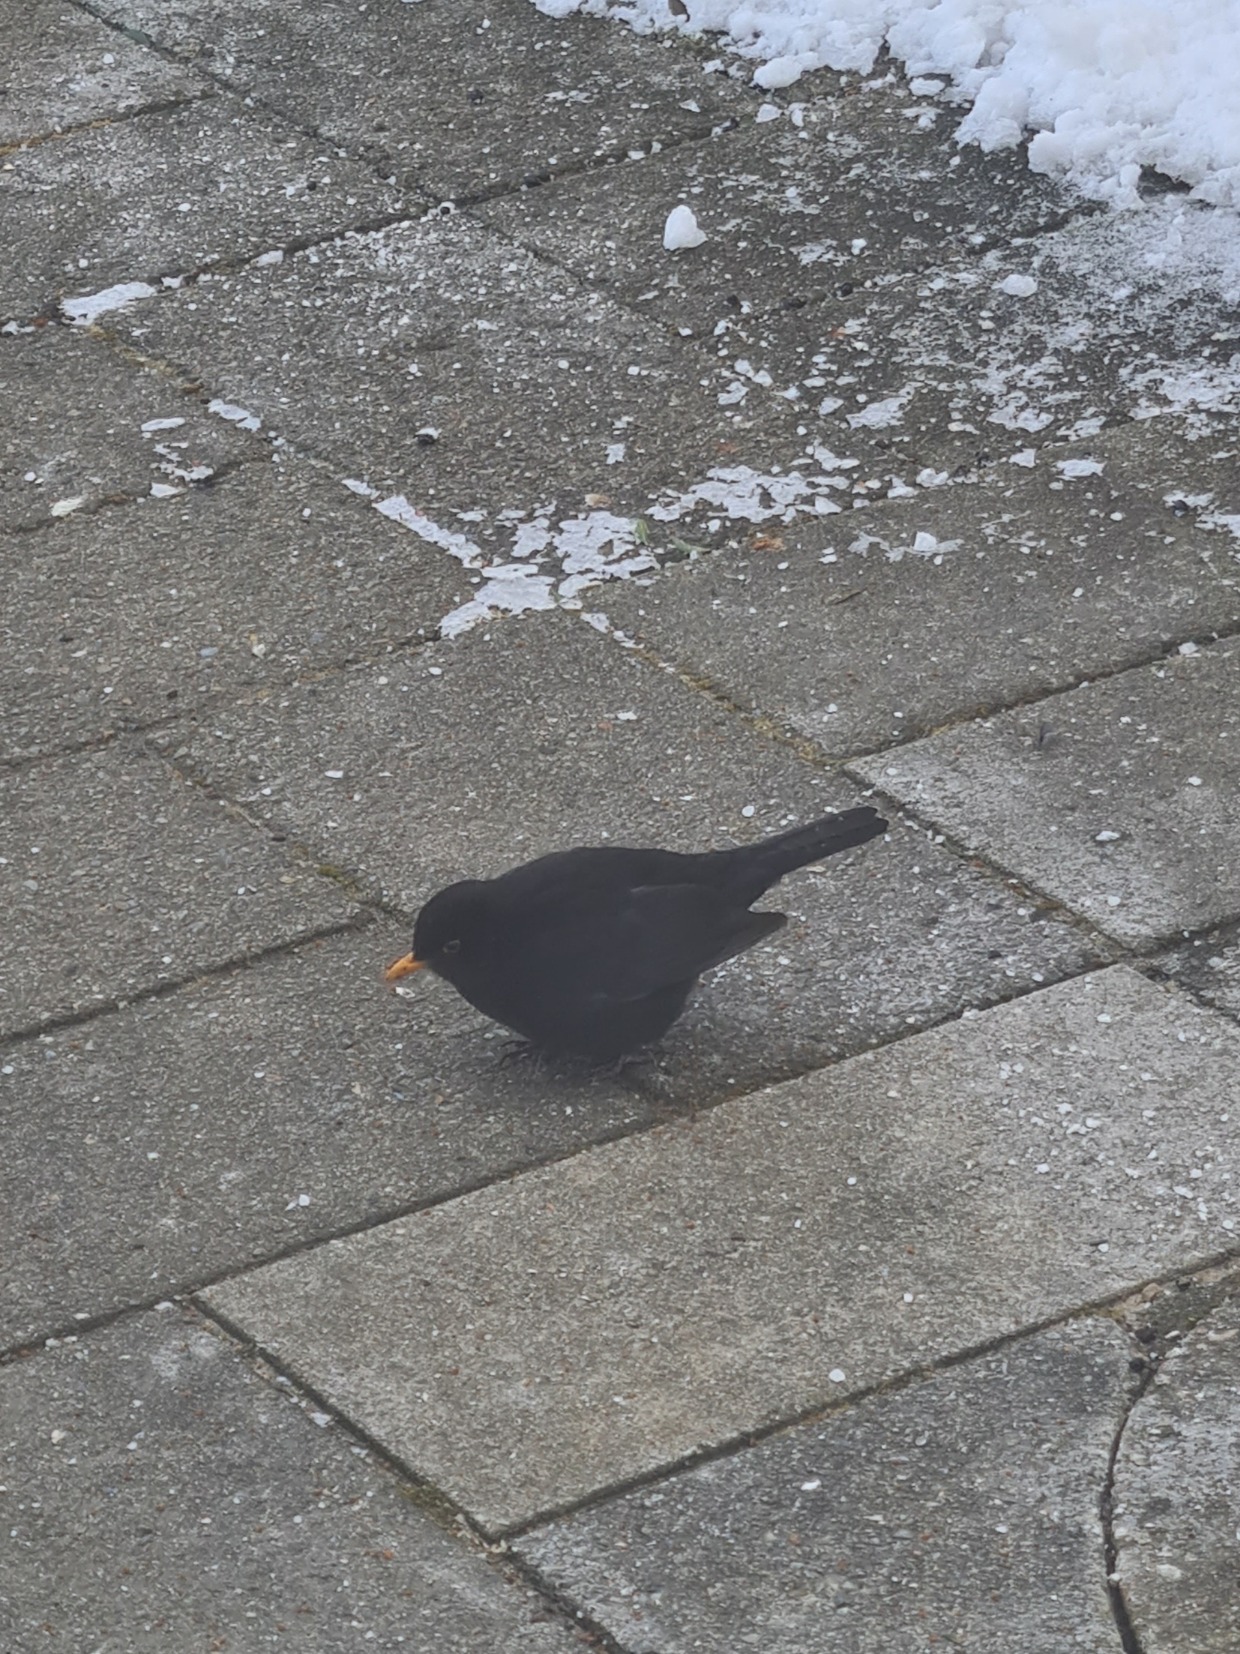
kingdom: Animalia
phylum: Chordata
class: Aves
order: Passeriformes
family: Turdidae
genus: Turdus
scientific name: Turdus merula
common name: Solsort
